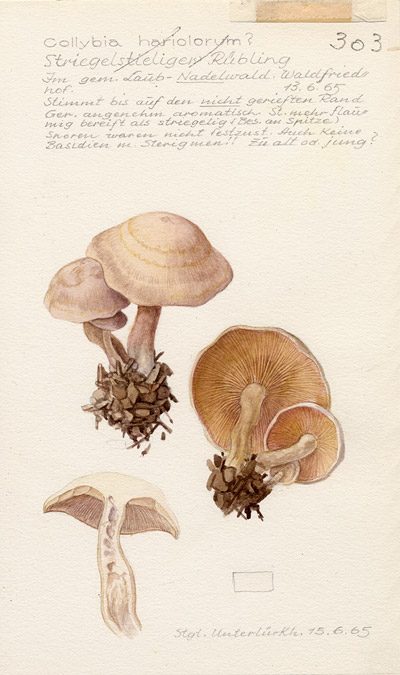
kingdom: Fungi
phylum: Basidiomycota
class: Agaricomycetes
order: Agaricales
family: Omphalotaceae
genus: Gymnopus
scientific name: Gymnopus hariolorum
